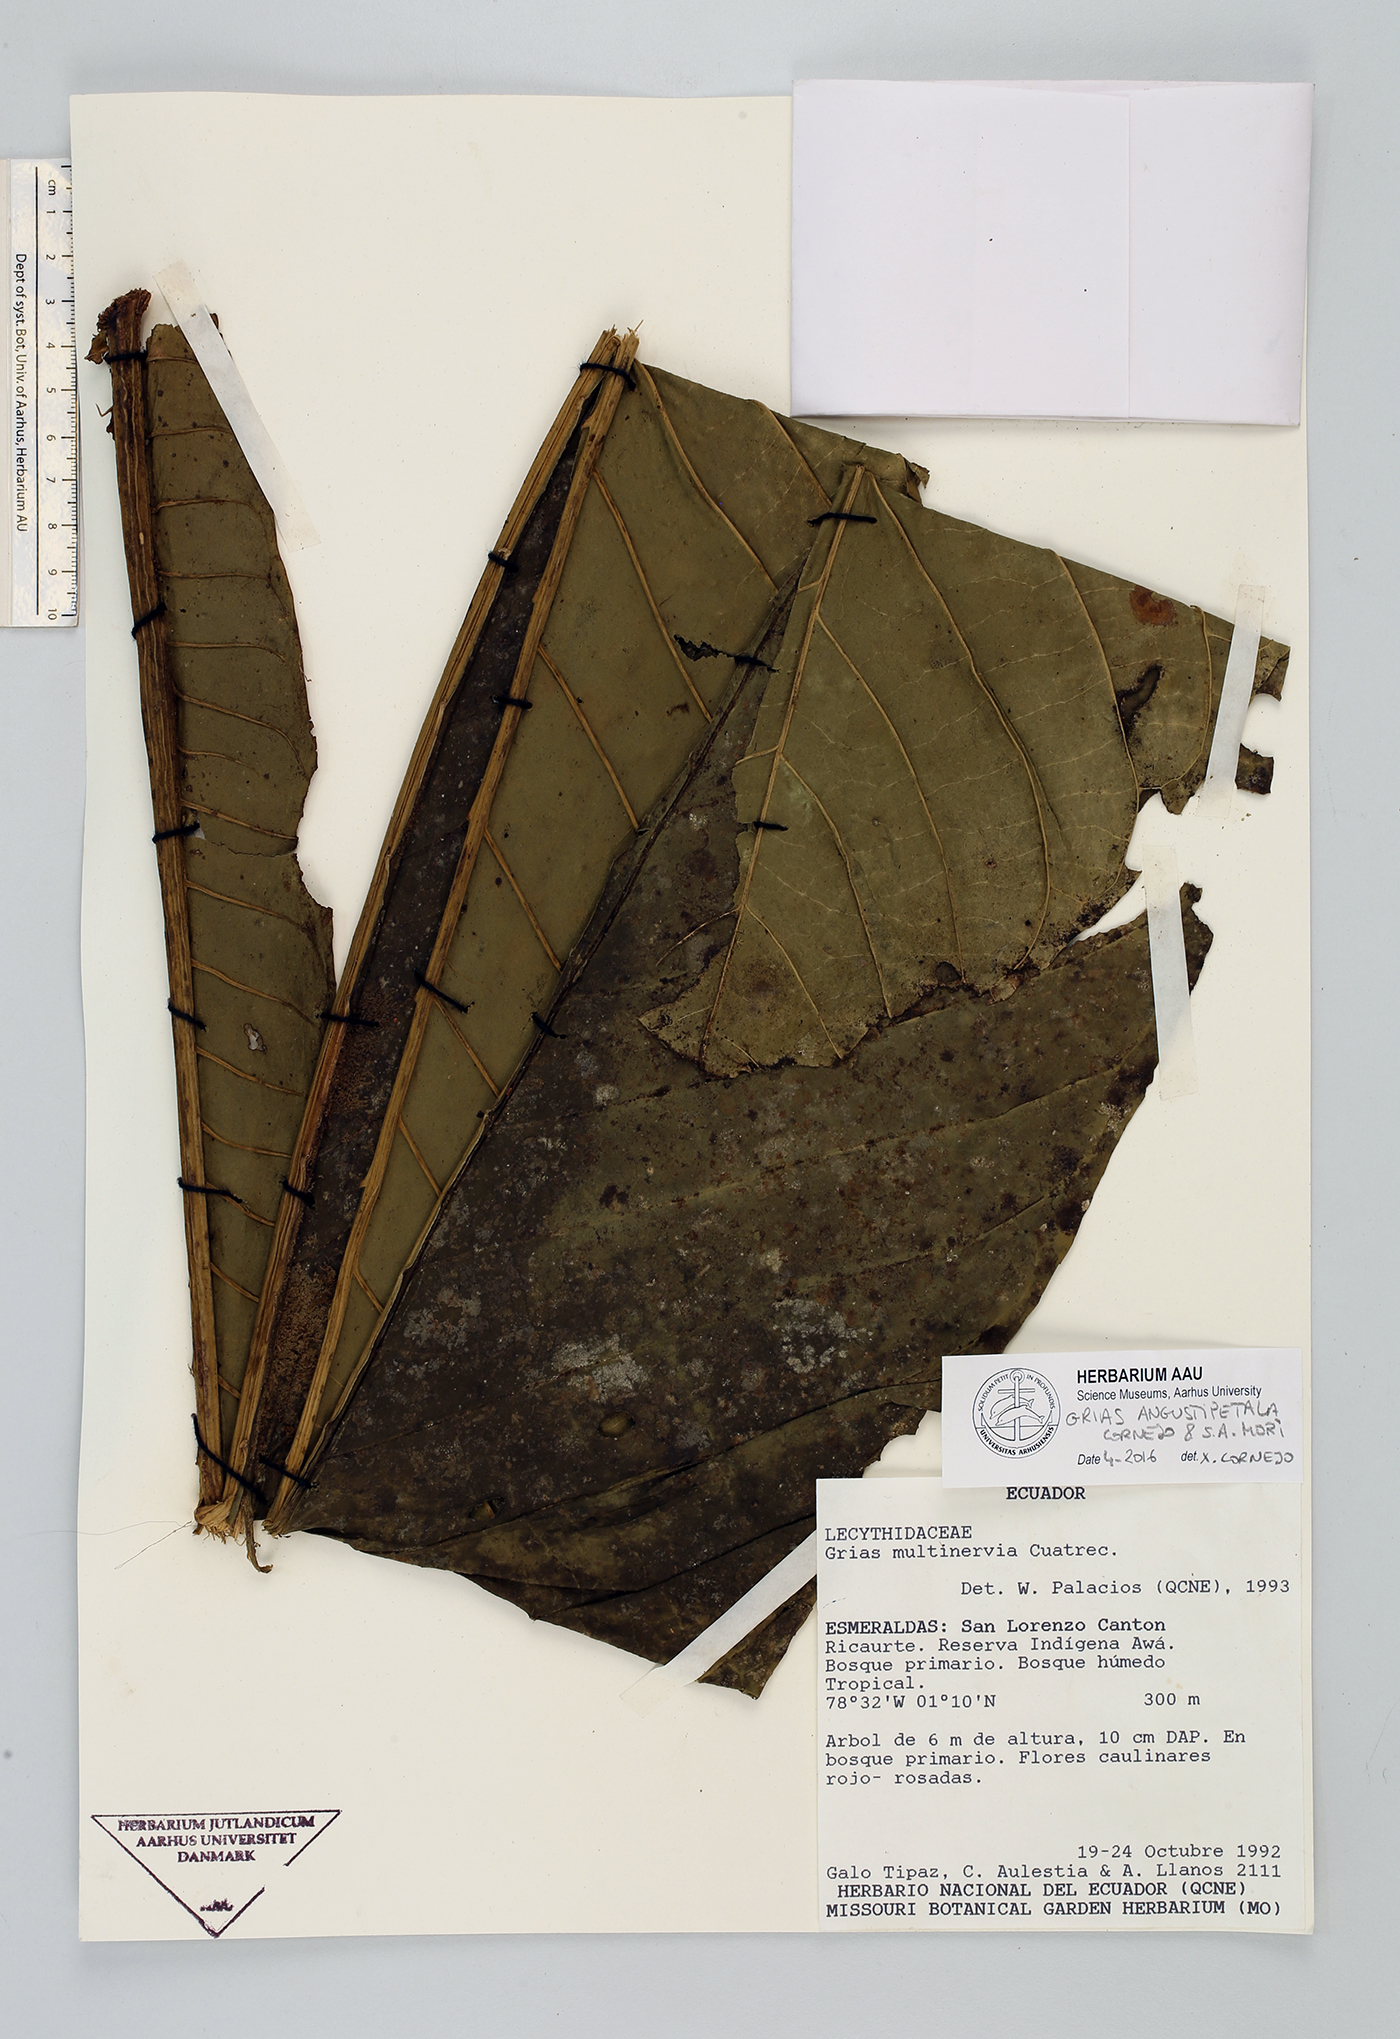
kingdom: Plantae
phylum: Tracheophyta
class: Magnoliopsida
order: Ericales
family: Lecythidaceae
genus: Grias
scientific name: Grias angustipetala
